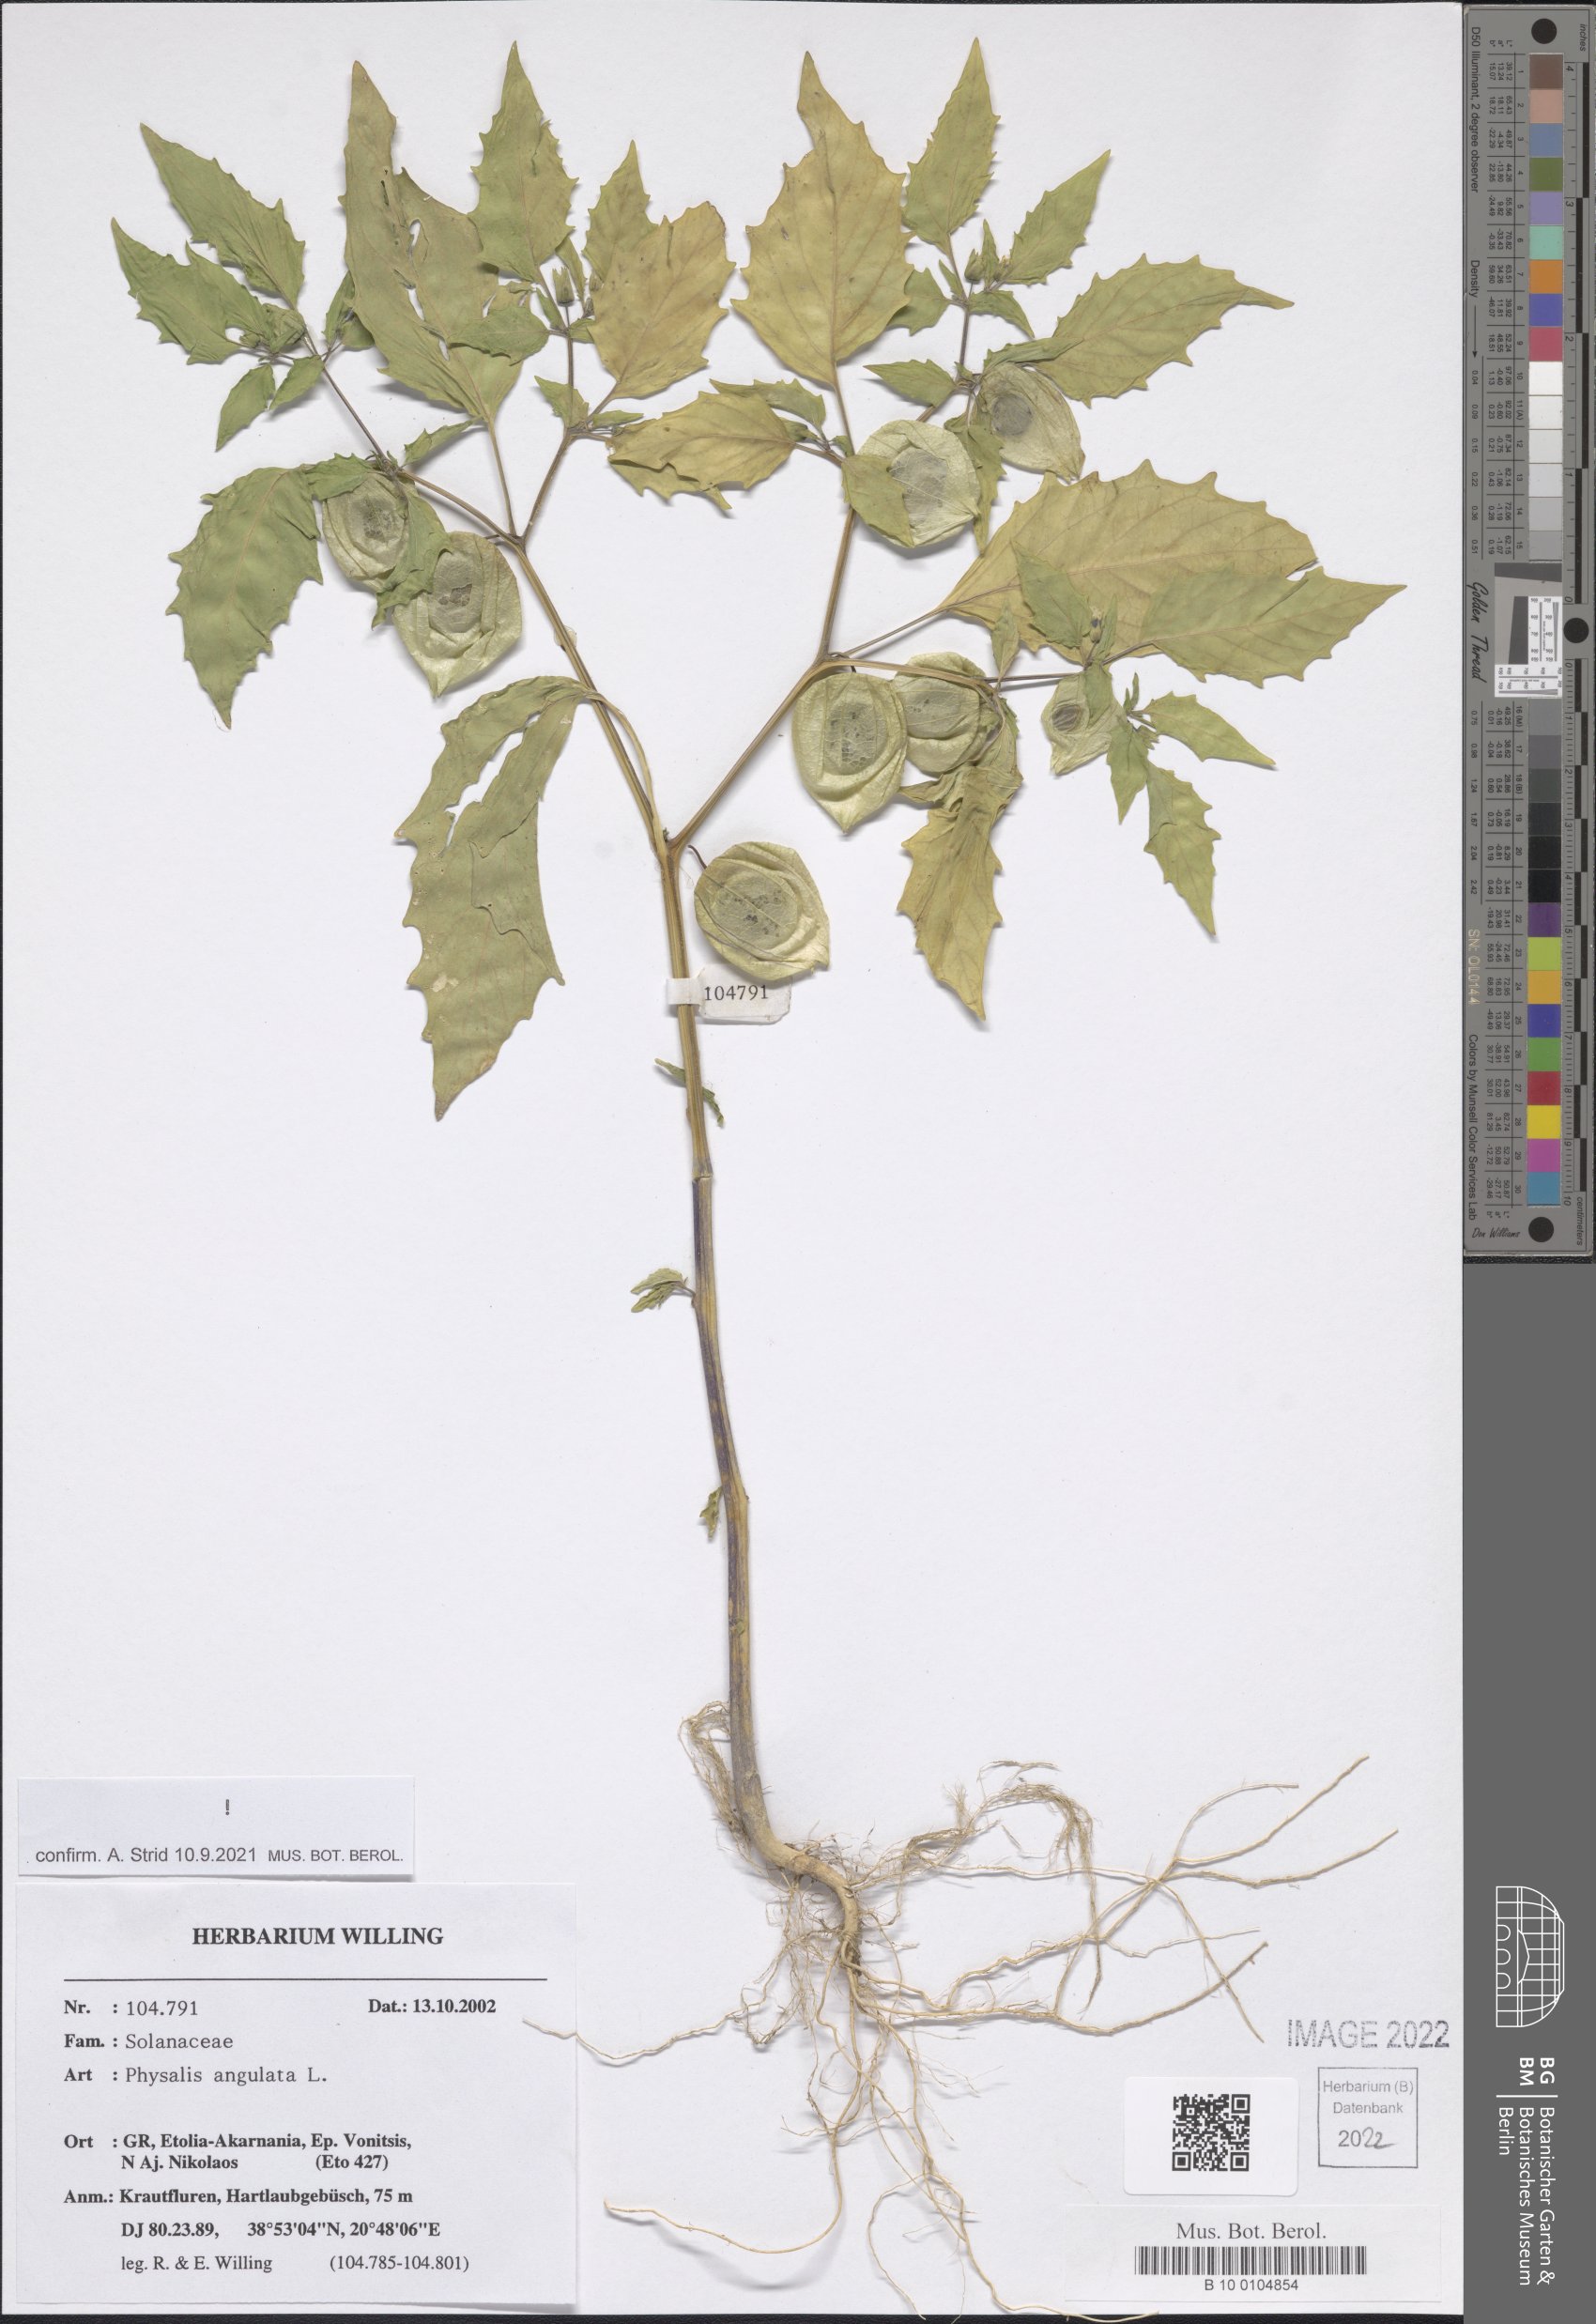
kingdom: Plantae
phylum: Tracheophyta
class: Magnoliopsida
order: Solanales
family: Solanaceae
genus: Physalis
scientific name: Physalis angulata
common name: Angular winter-cherry
